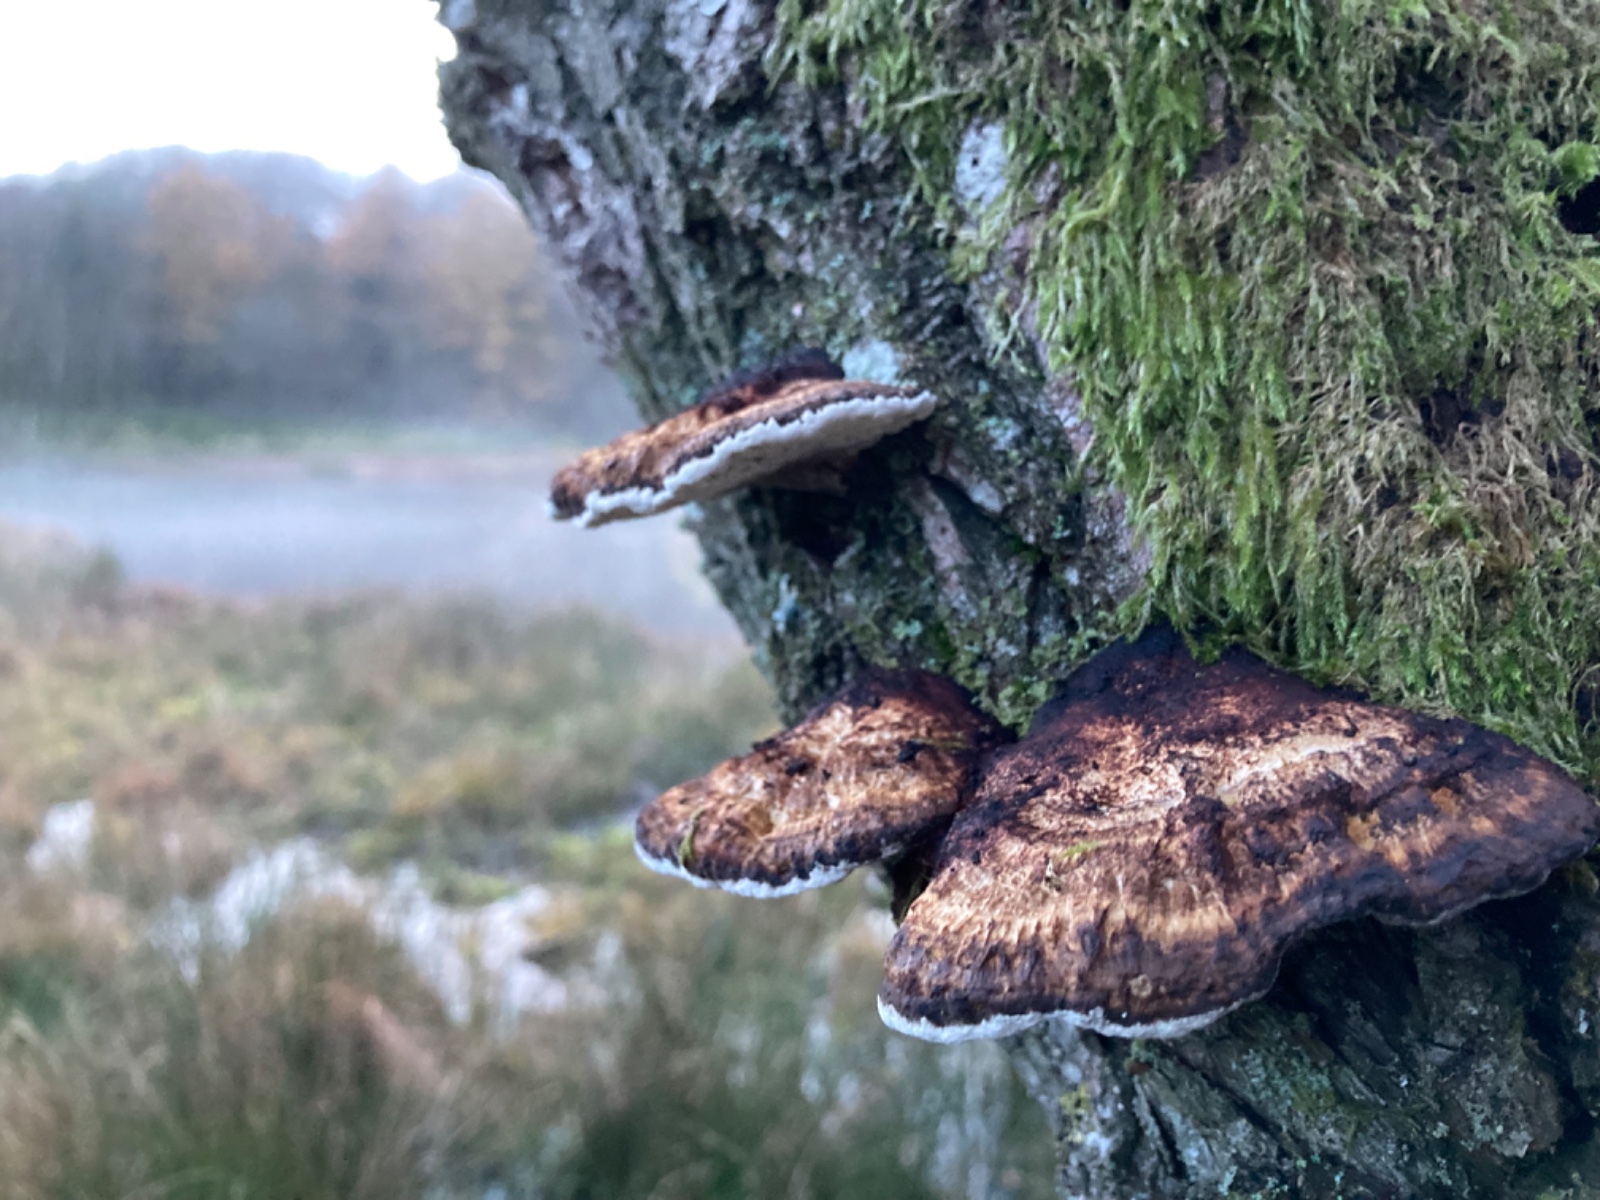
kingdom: Fungi
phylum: Basidiomycota
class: Agaricomycetes
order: Polyporales
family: Polyporaceae
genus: Daedaleopsis
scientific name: Daedaleopsis confragosa
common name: rødmende læderporesvamp
